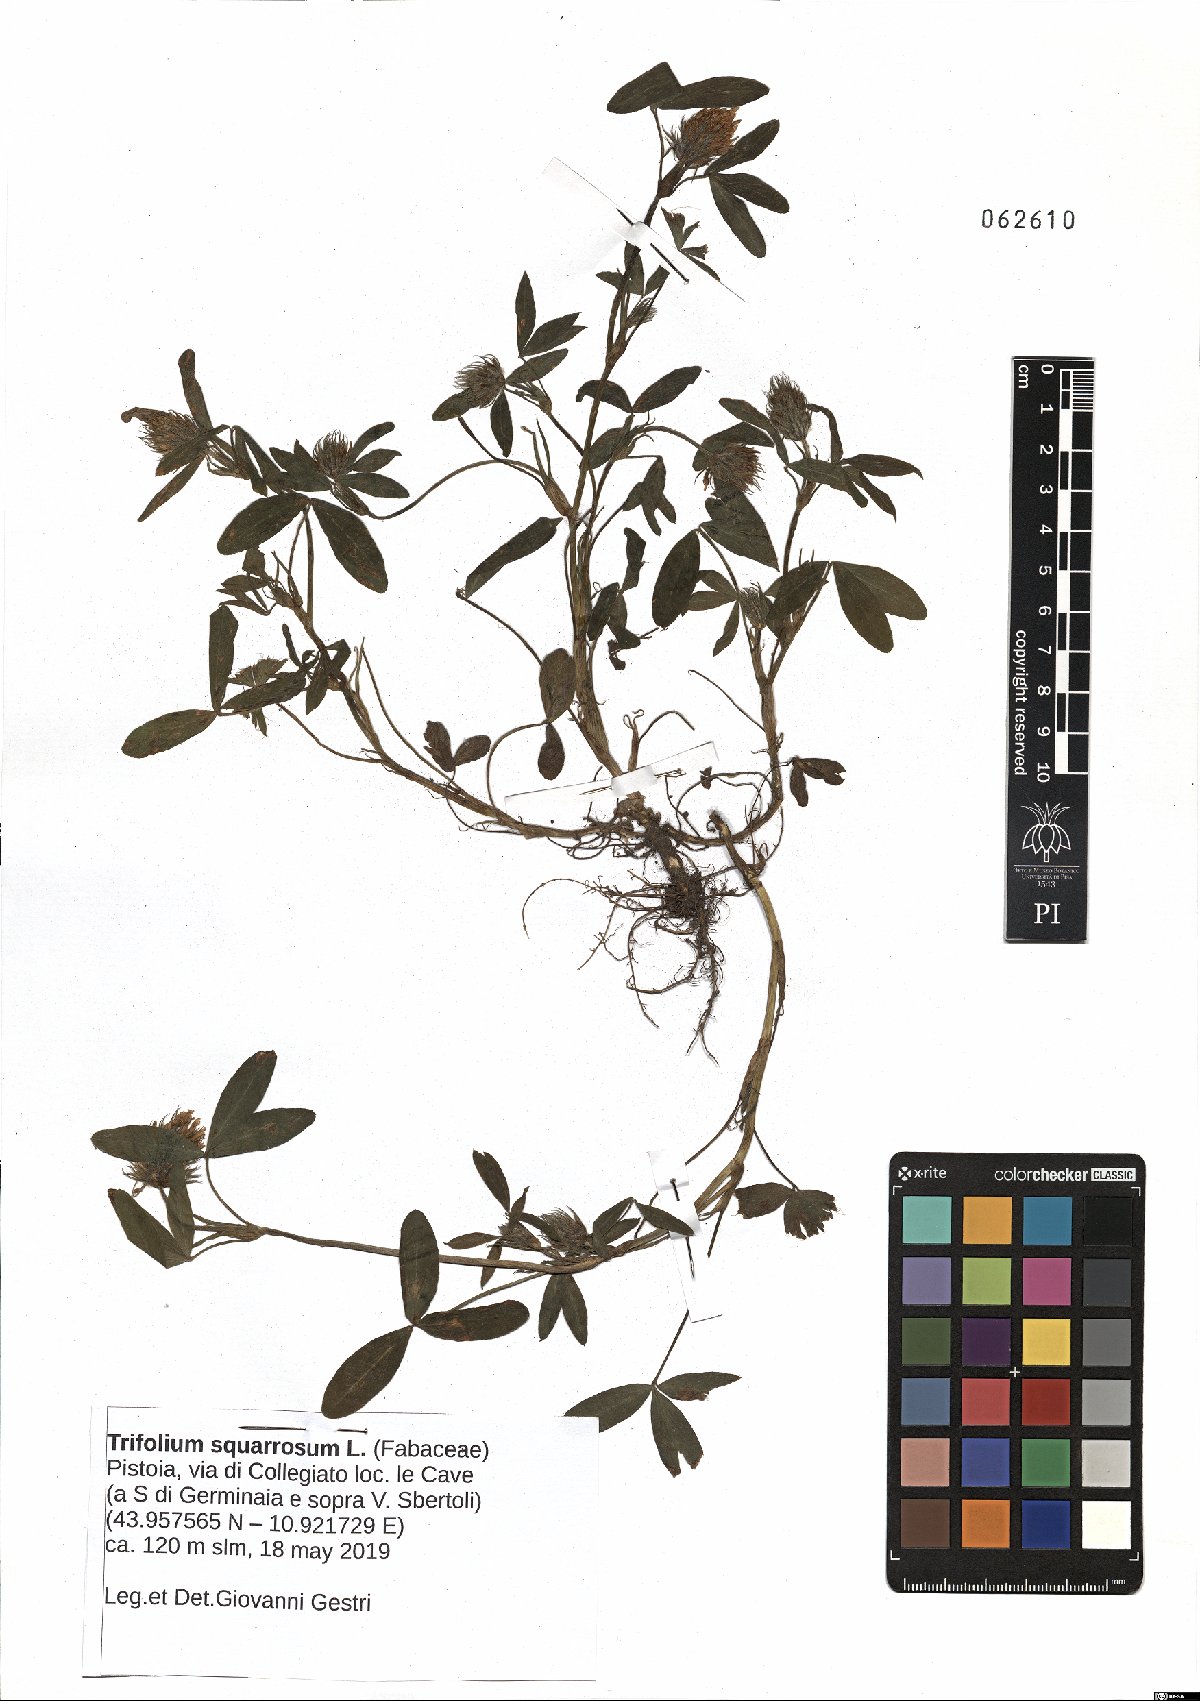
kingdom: Plantae
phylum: Tracheophyta
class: Magnoliopsida
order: Fabales
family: Fabaceae
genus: Trifolium
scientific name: Trifolium squarrosum
